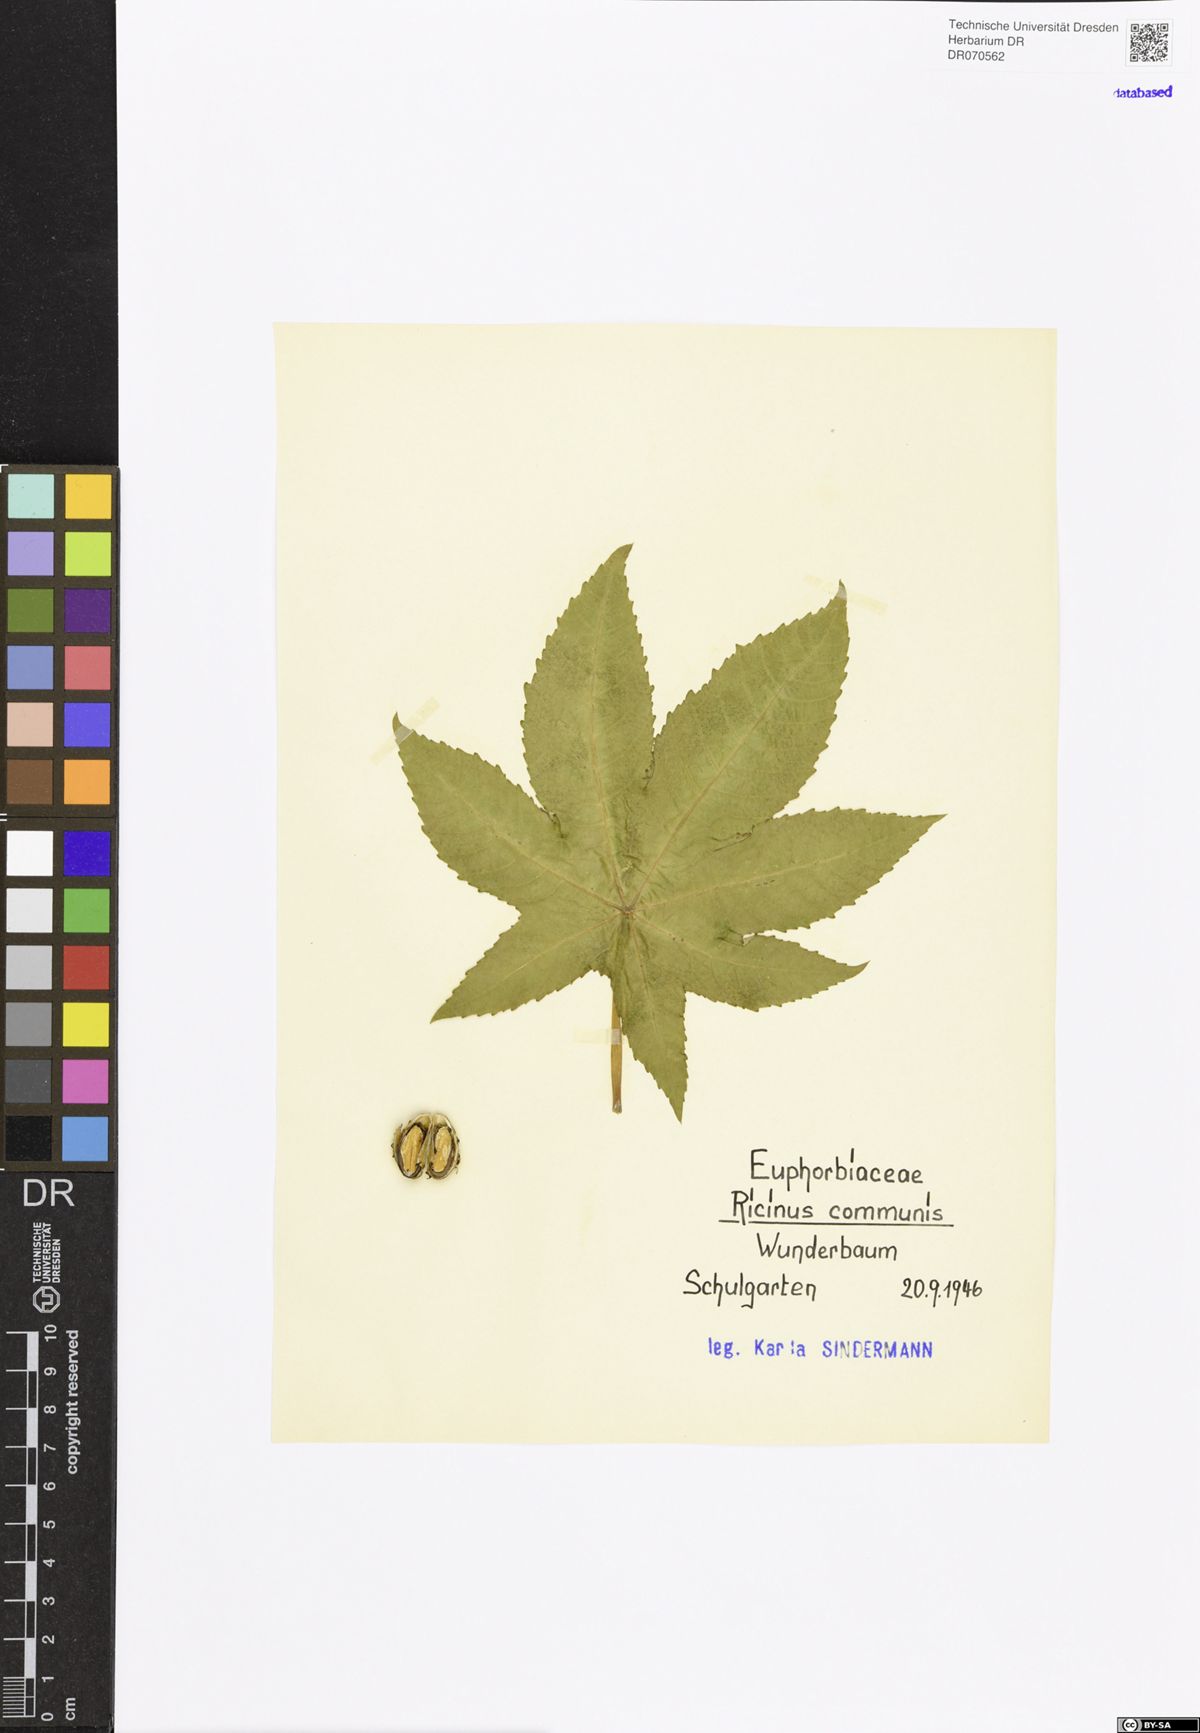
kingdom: Plantae
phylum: Tracheophyta
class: Magnoliopsida
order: Malpighiales
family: Euphorbiaceae
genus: Ricinus
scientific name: Ricinus communis
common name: Castor-oil-plant
